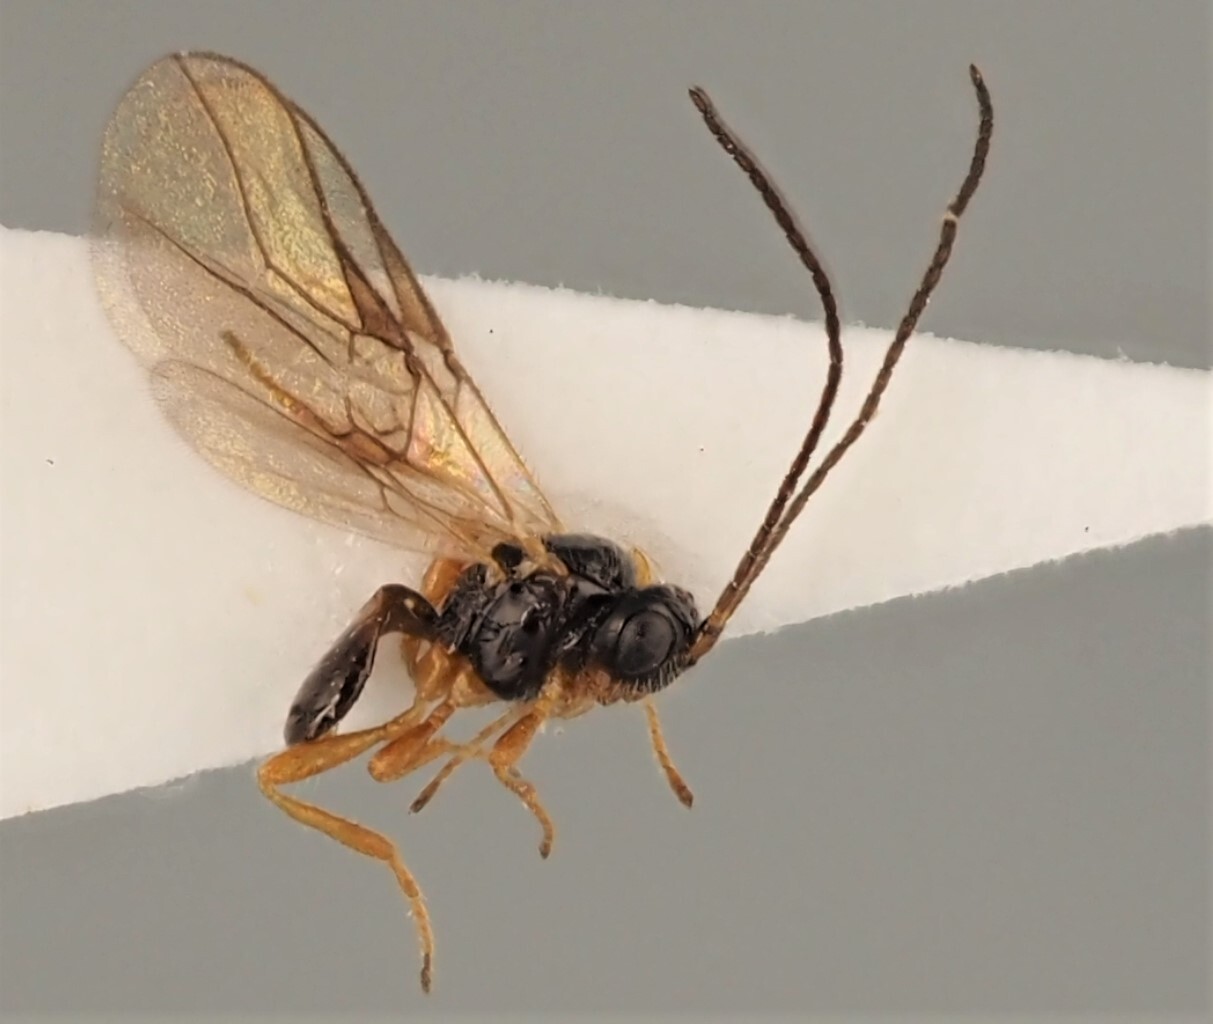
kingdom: Animalia
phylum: Arthropoda
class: Insecta
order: Hymenoptera
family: Braconidae
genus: Opius
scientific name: Opius saevus
